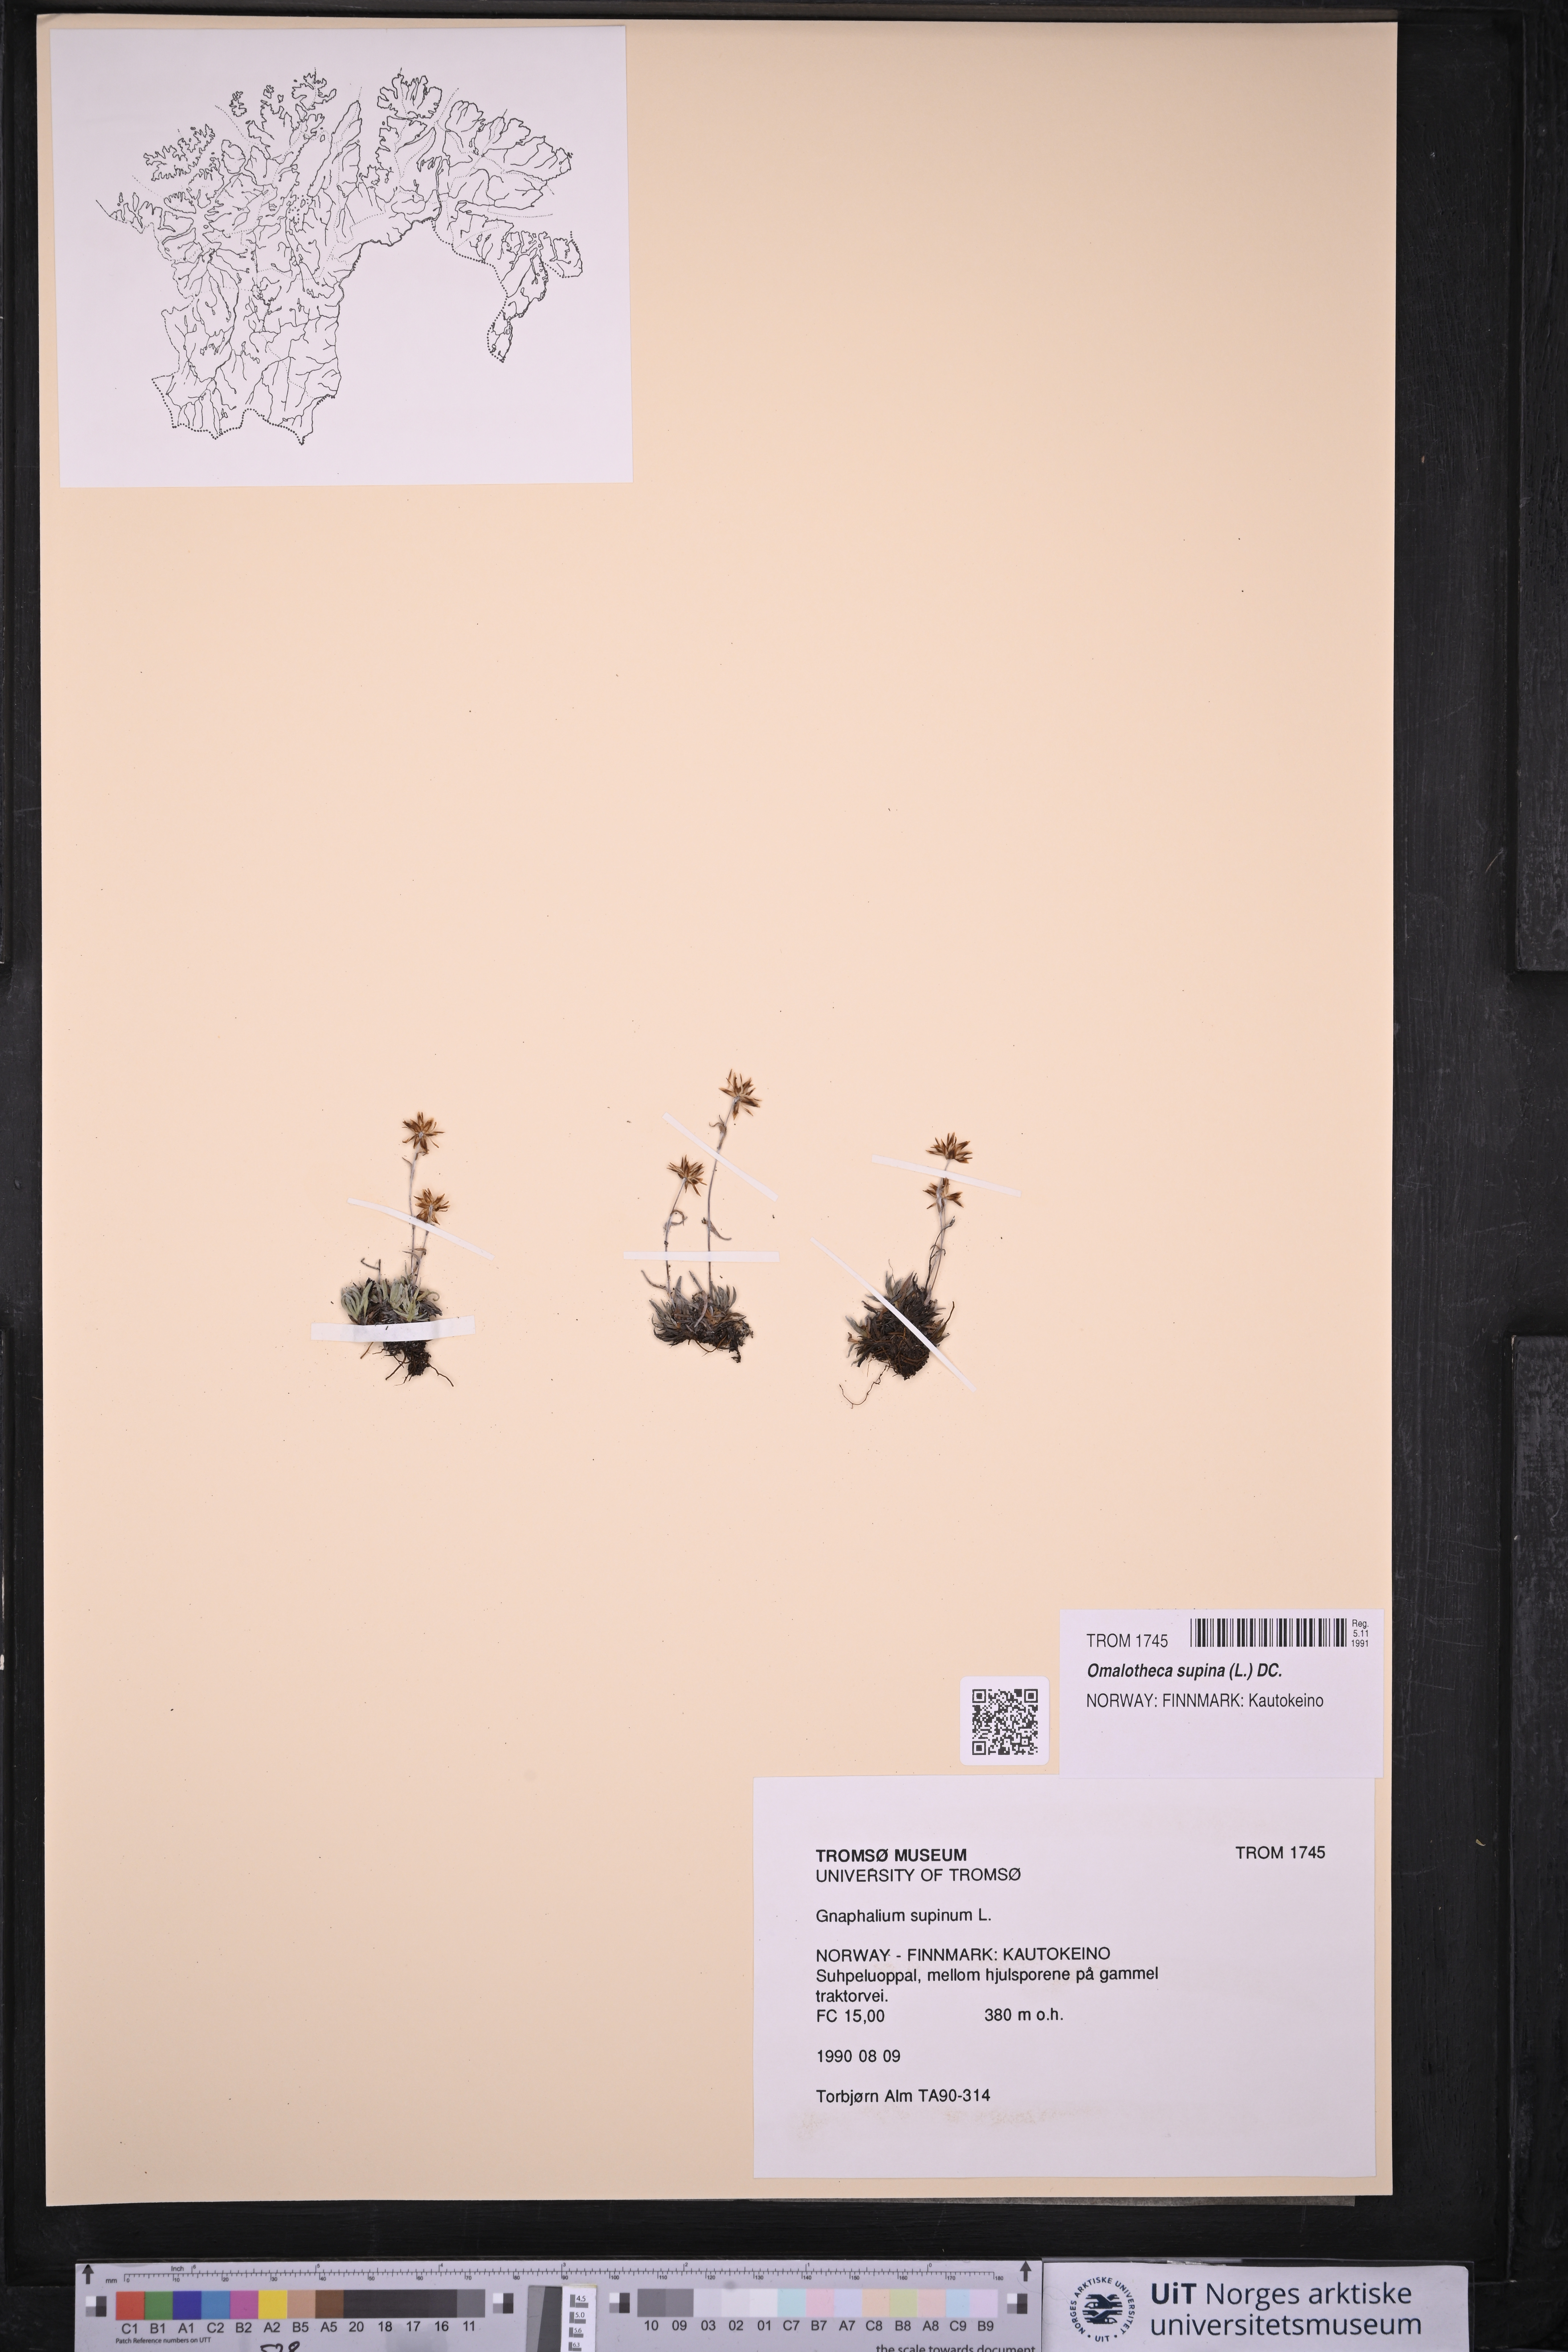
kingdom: Plantae
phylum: Tracheophyta
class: Magnoliopsida
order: Asterales
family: Asteraceae
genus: Omalotheca
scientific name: Omalotheca supina
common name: Alpine arctic-cudweed
